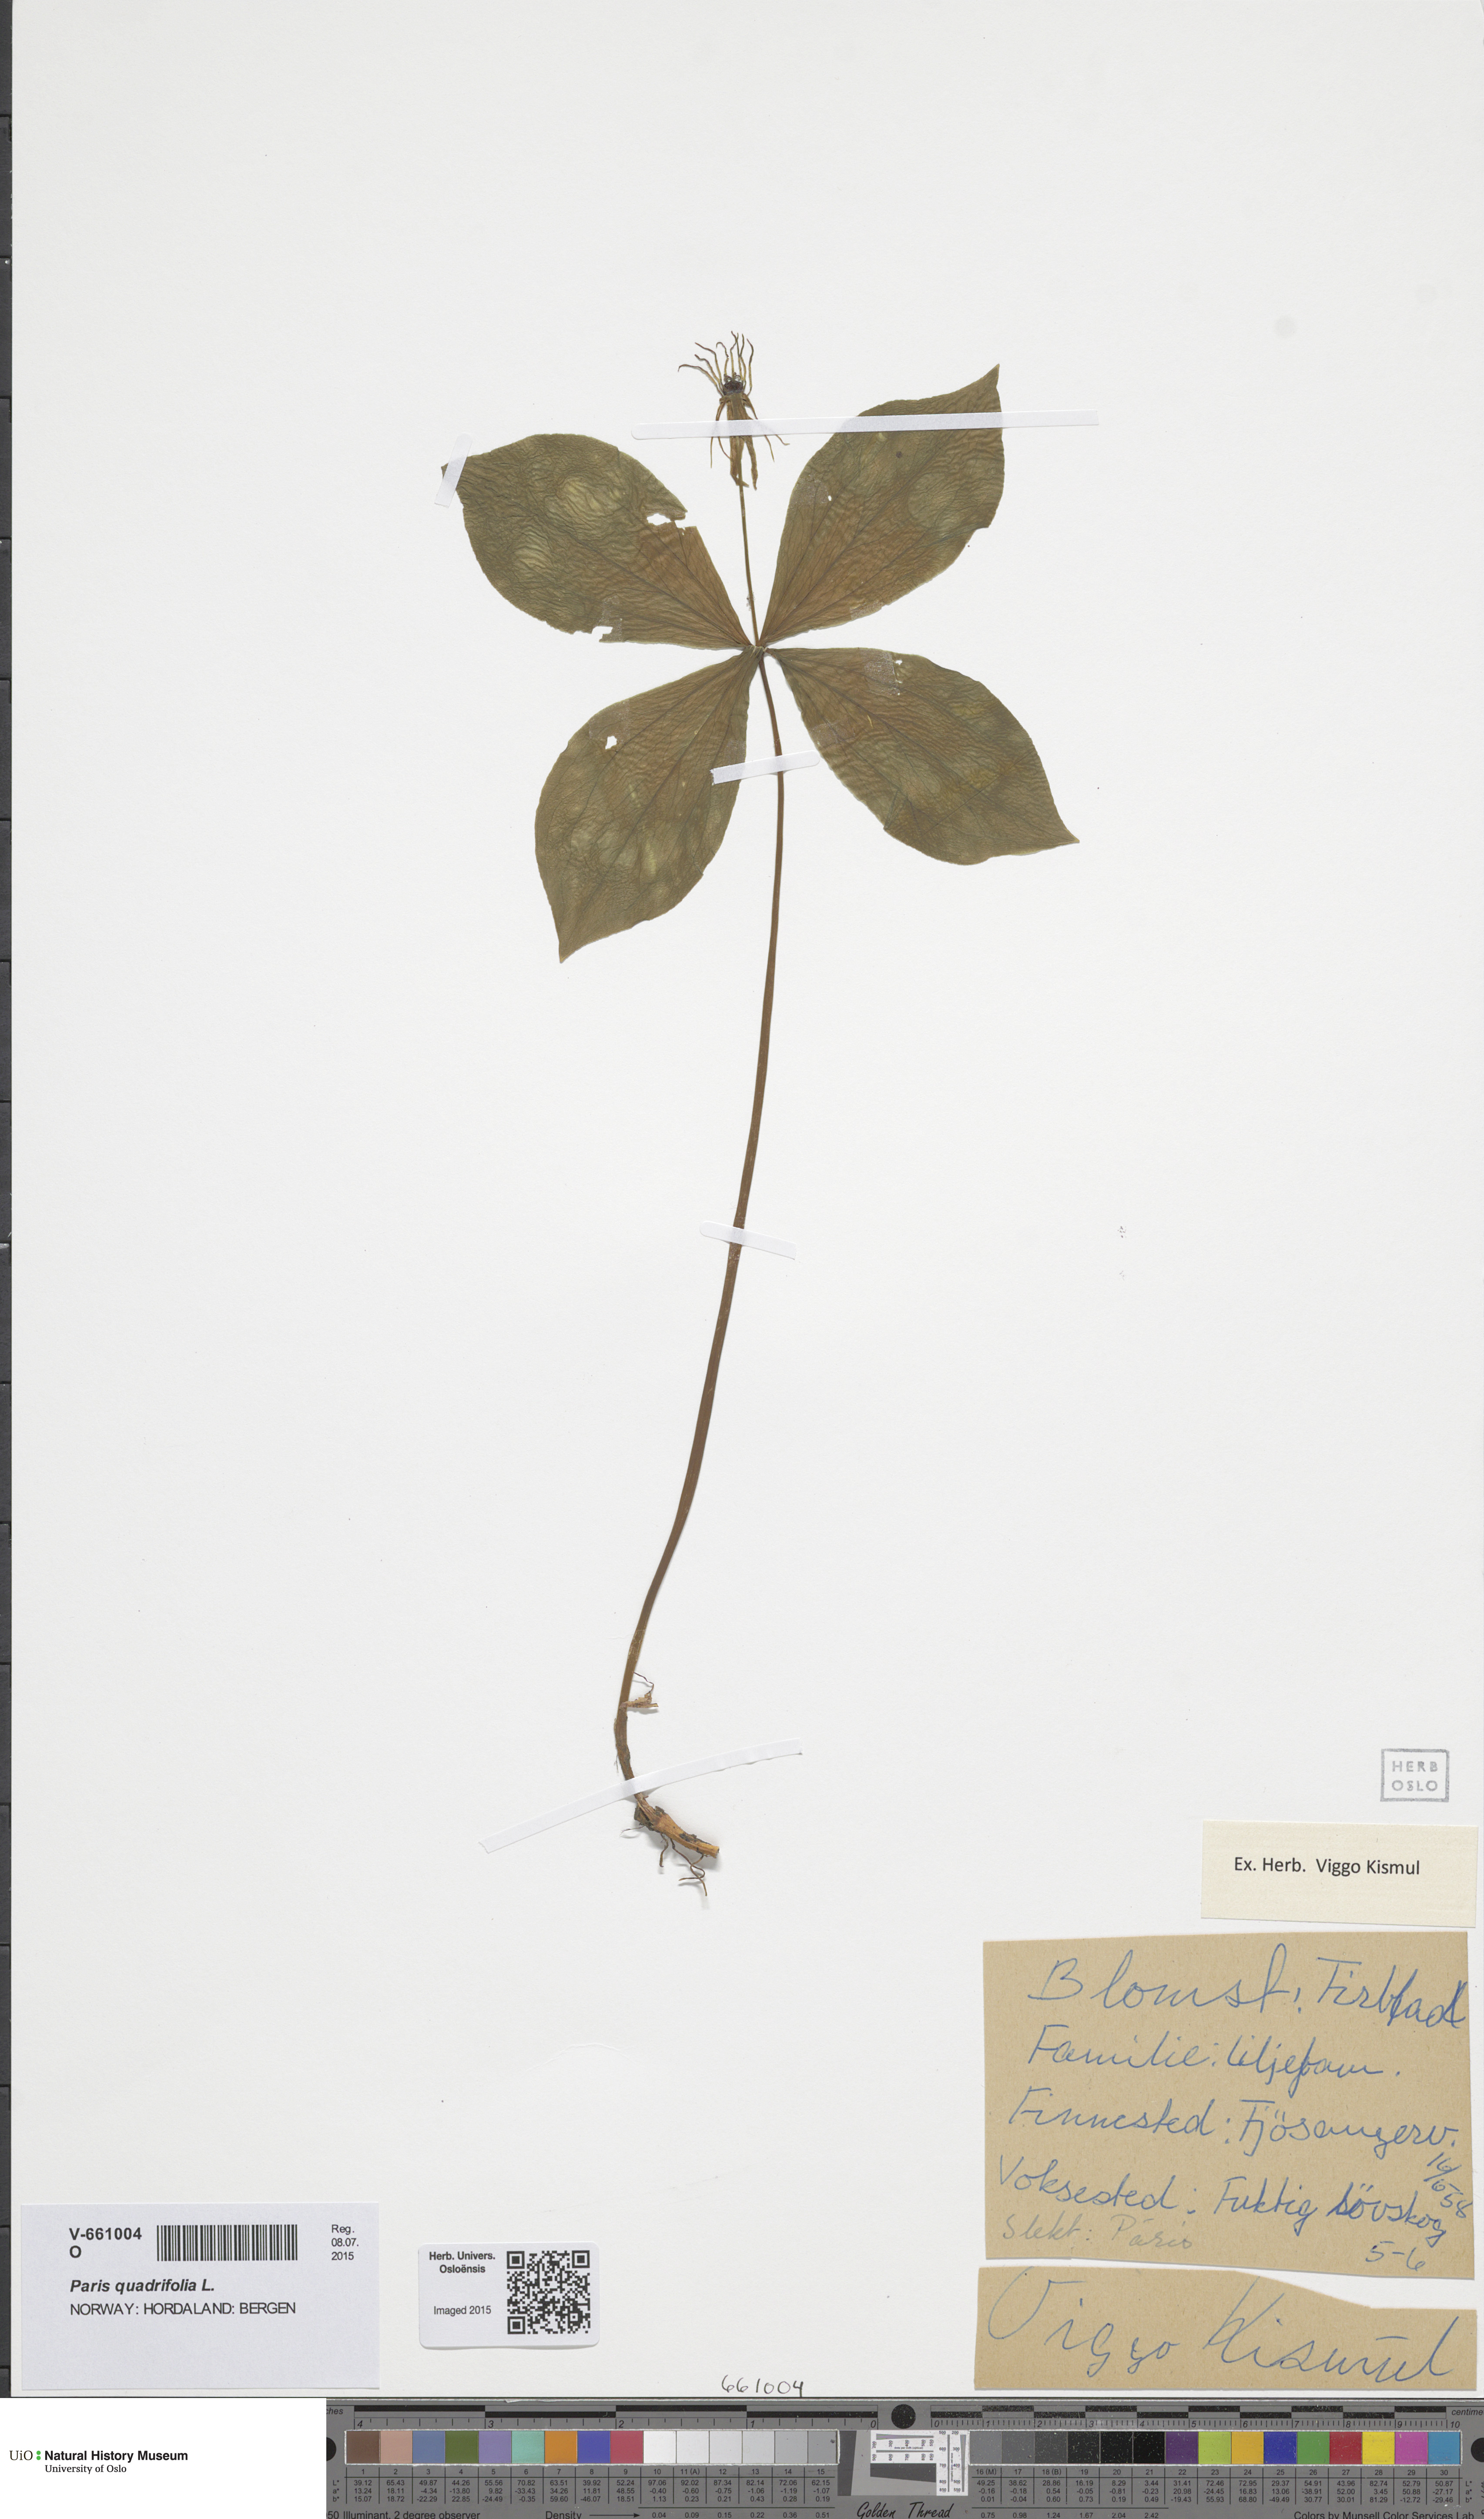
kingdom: Plantae
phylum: Tracheophyta
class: Liliopsida
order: Liliales
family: Melanthiaceae
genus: Paris
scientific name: Paris quadrifolia
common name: Herb-paris
